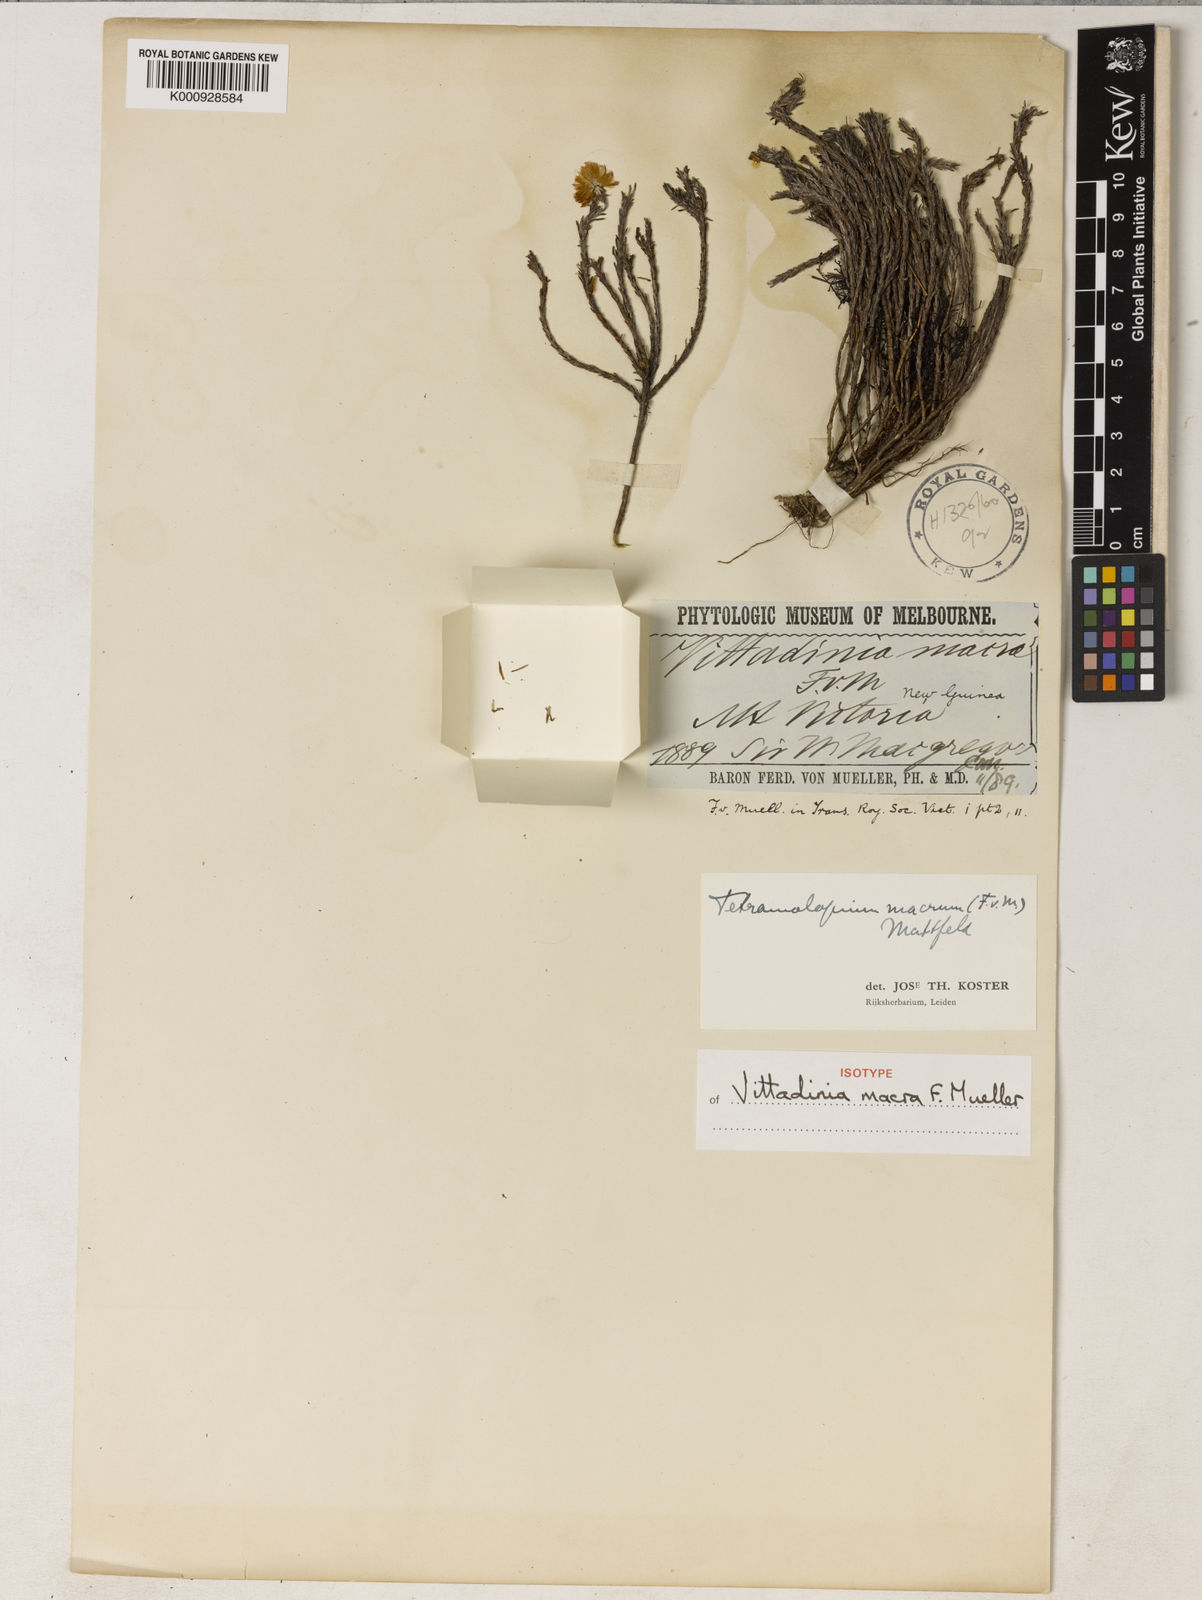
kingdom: Plantae
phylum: Tracheophyta
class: Magnoliopsida
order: Asterales
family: Asteraceae
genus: Tetramolopium
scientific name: Tetramolopium macrum
